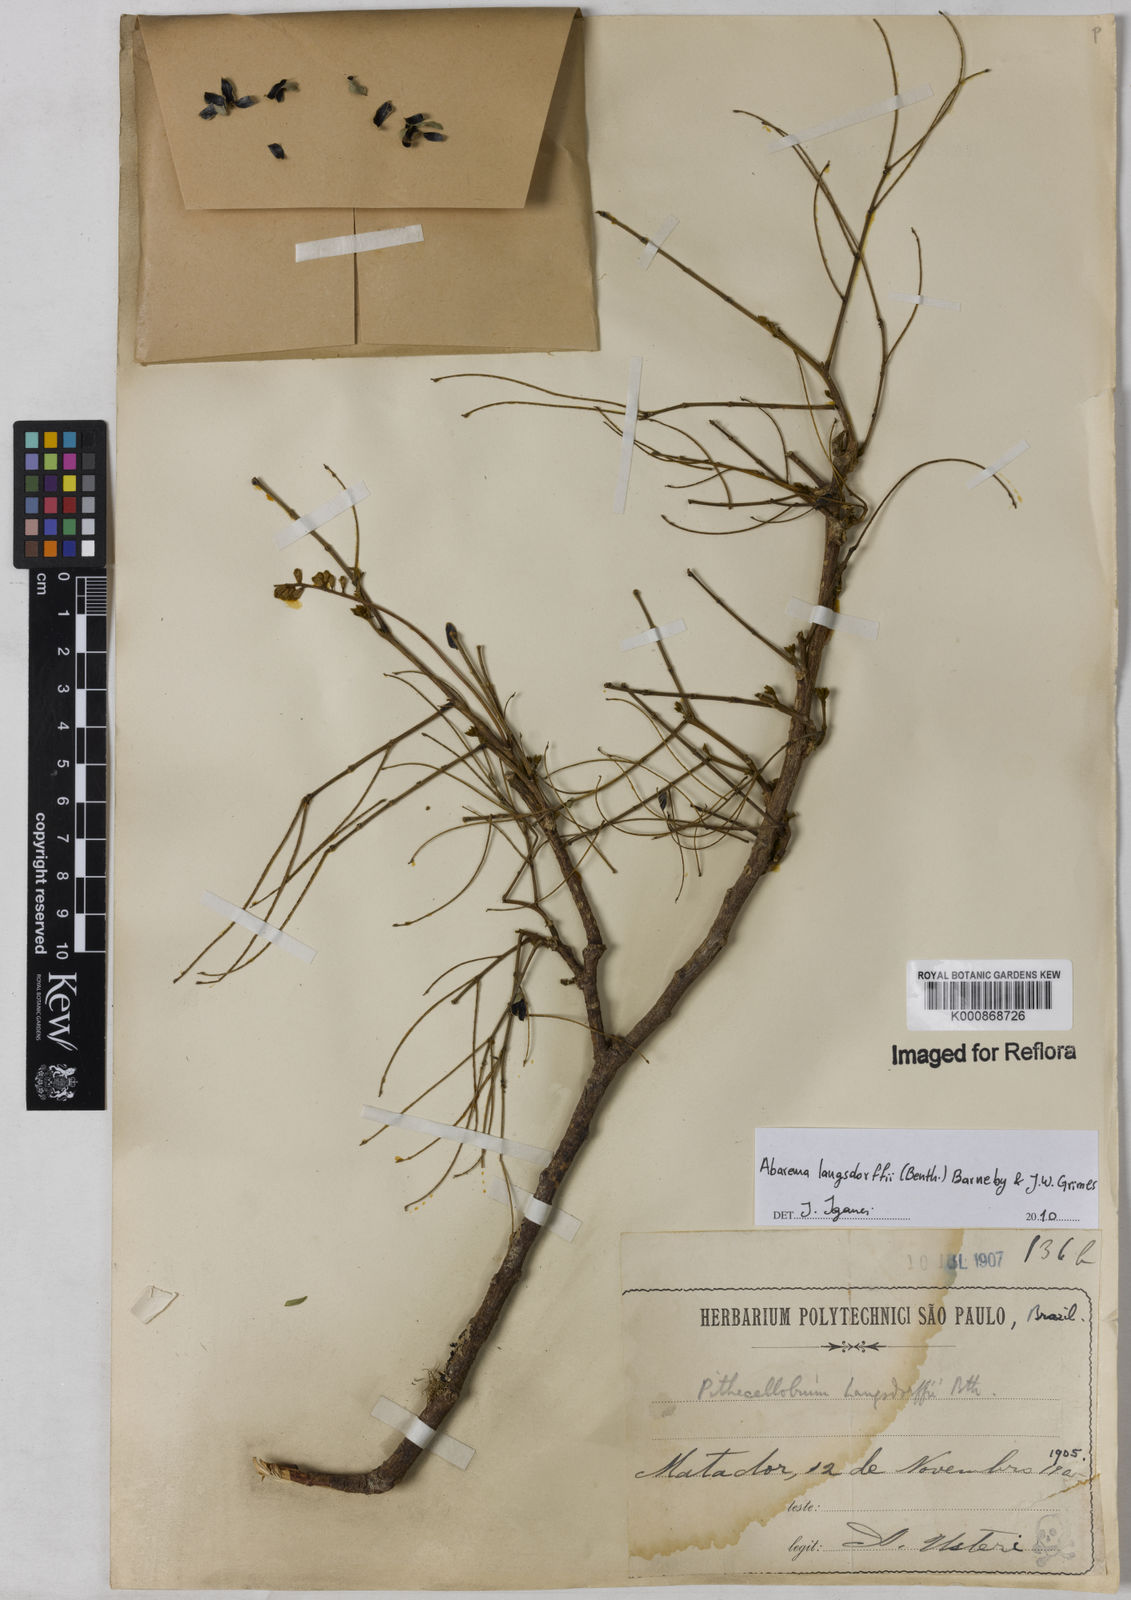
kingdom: Plantae
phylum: Tracheophyta
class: Magnoliopsida
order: Fabales
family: Fabaceae
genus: Jupunba
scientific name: Jupunba langsdorffii
